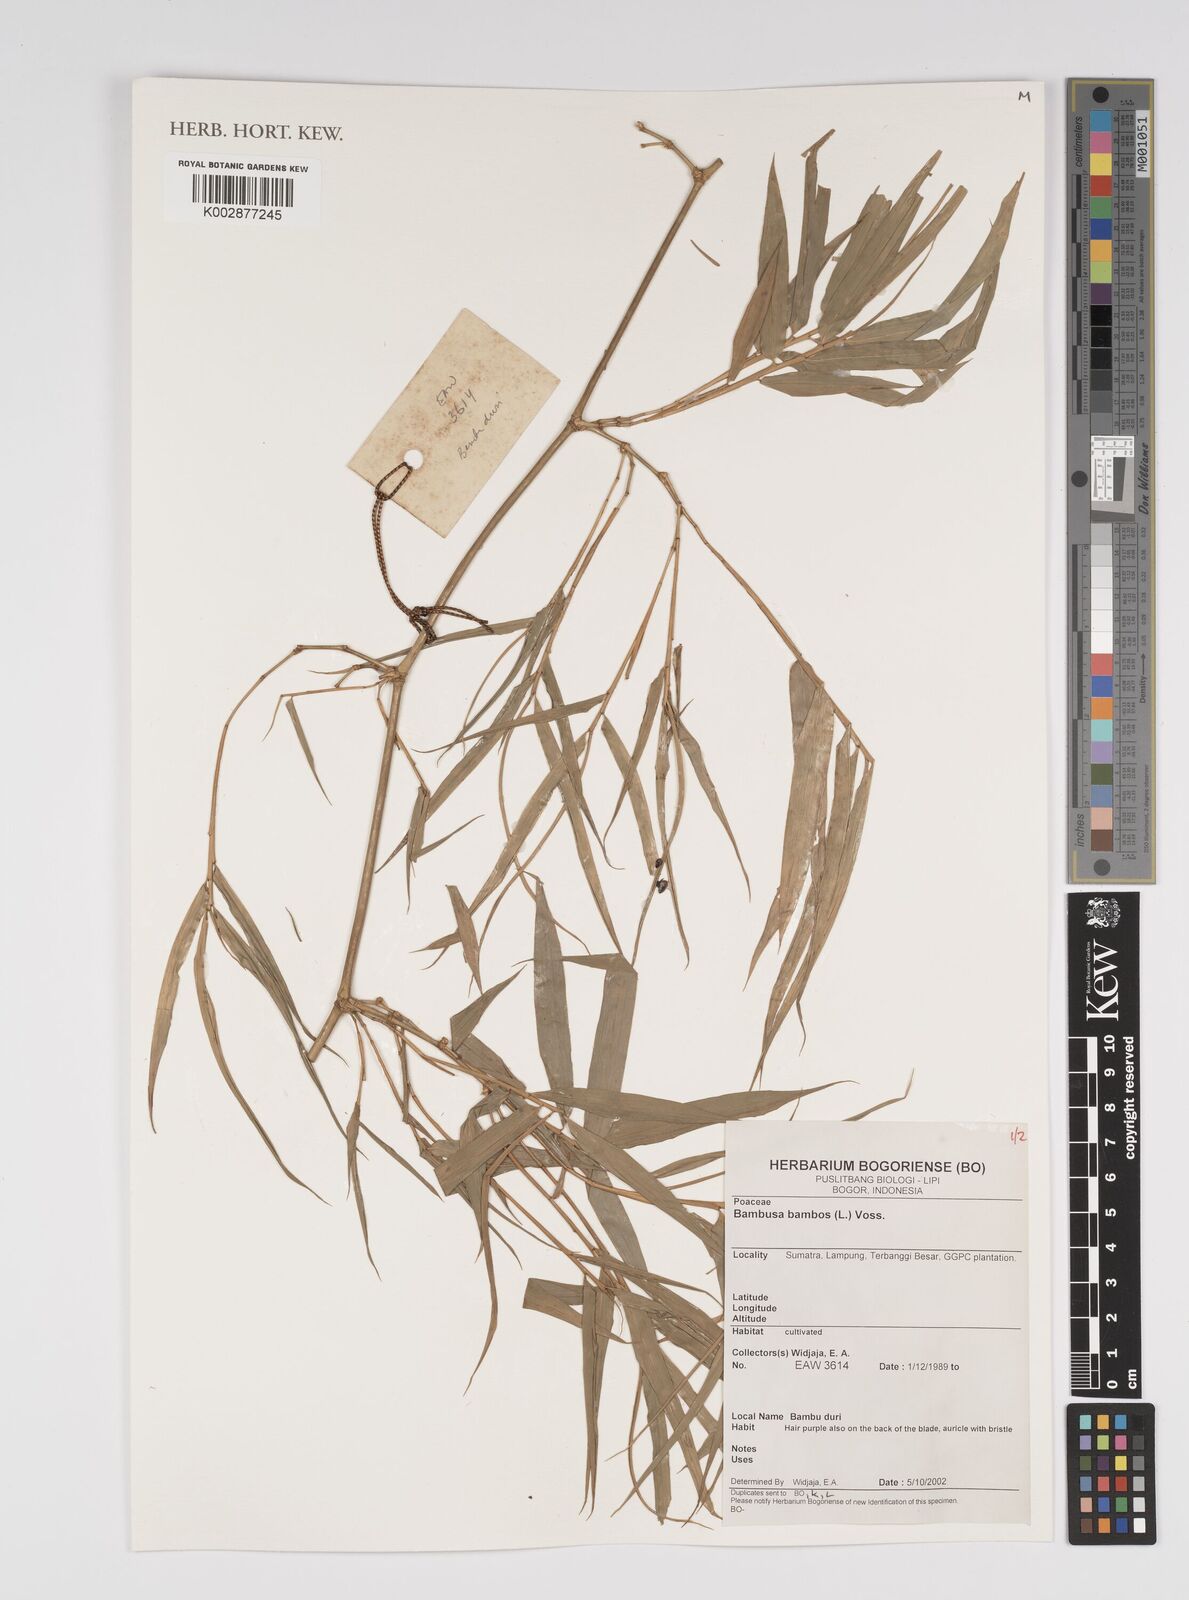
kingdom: Plantae
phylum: Tracheophyta
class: Liliopsida
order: Poales
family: Poaceae
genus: Bambusa
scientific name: Bambusa
